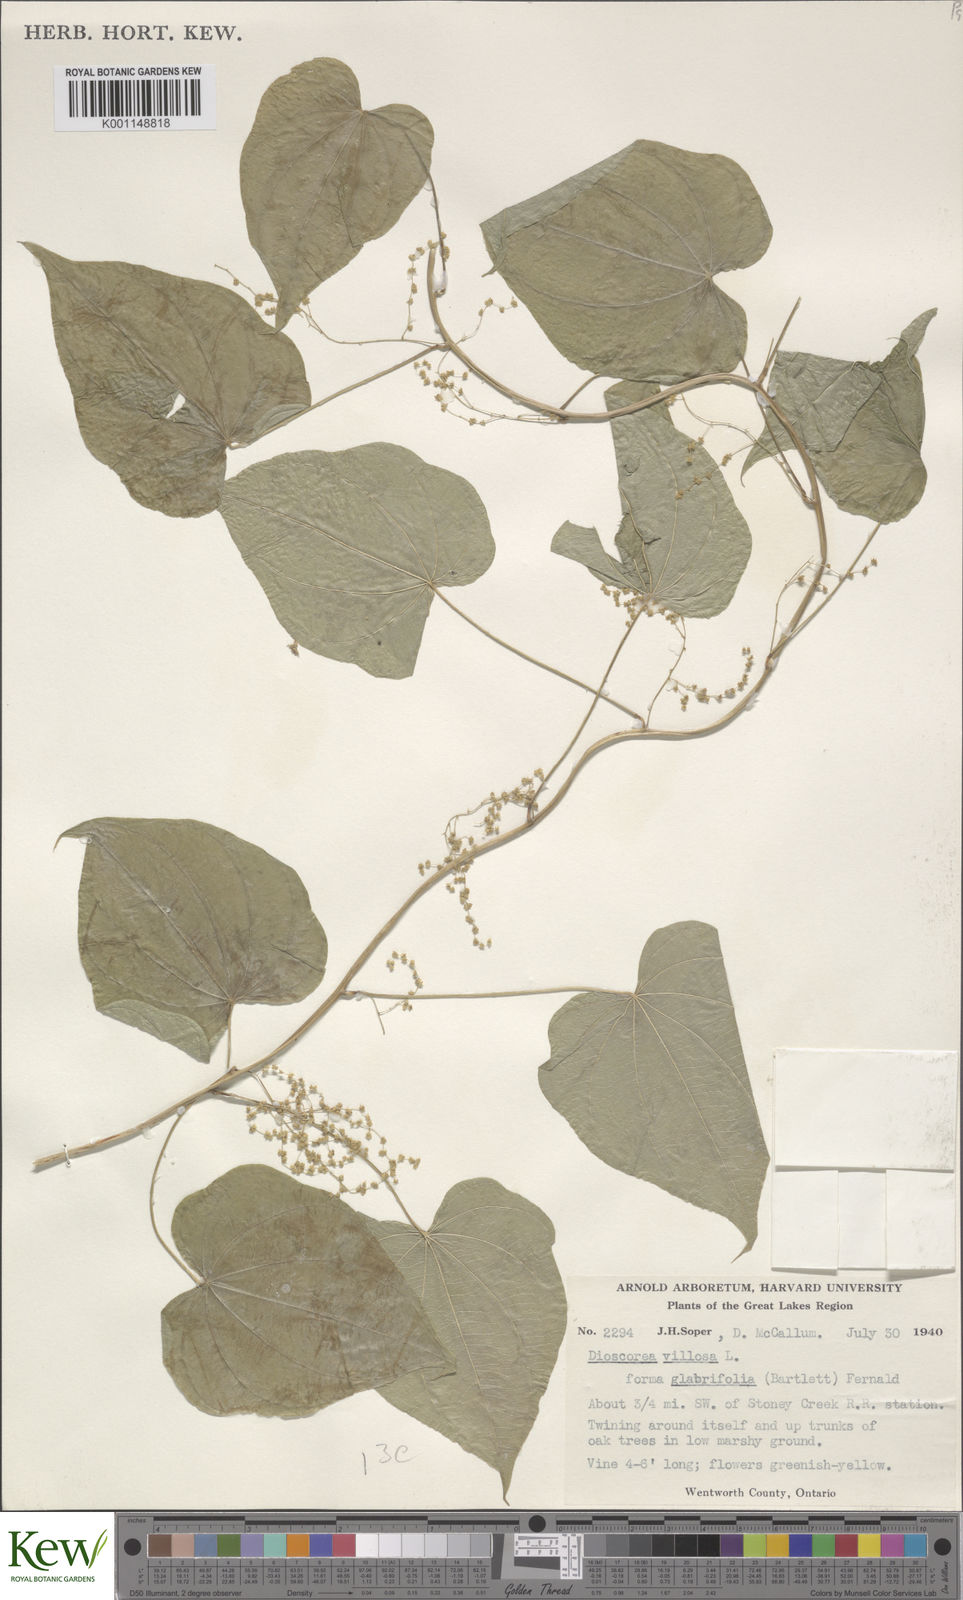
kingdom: Plantae
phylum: Tracheophyta
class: Liliopsida
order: Dioscoreales
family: Dioscoreaceae
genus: Dioscorea
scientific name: Dioscorea villosa
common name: Wild yam
